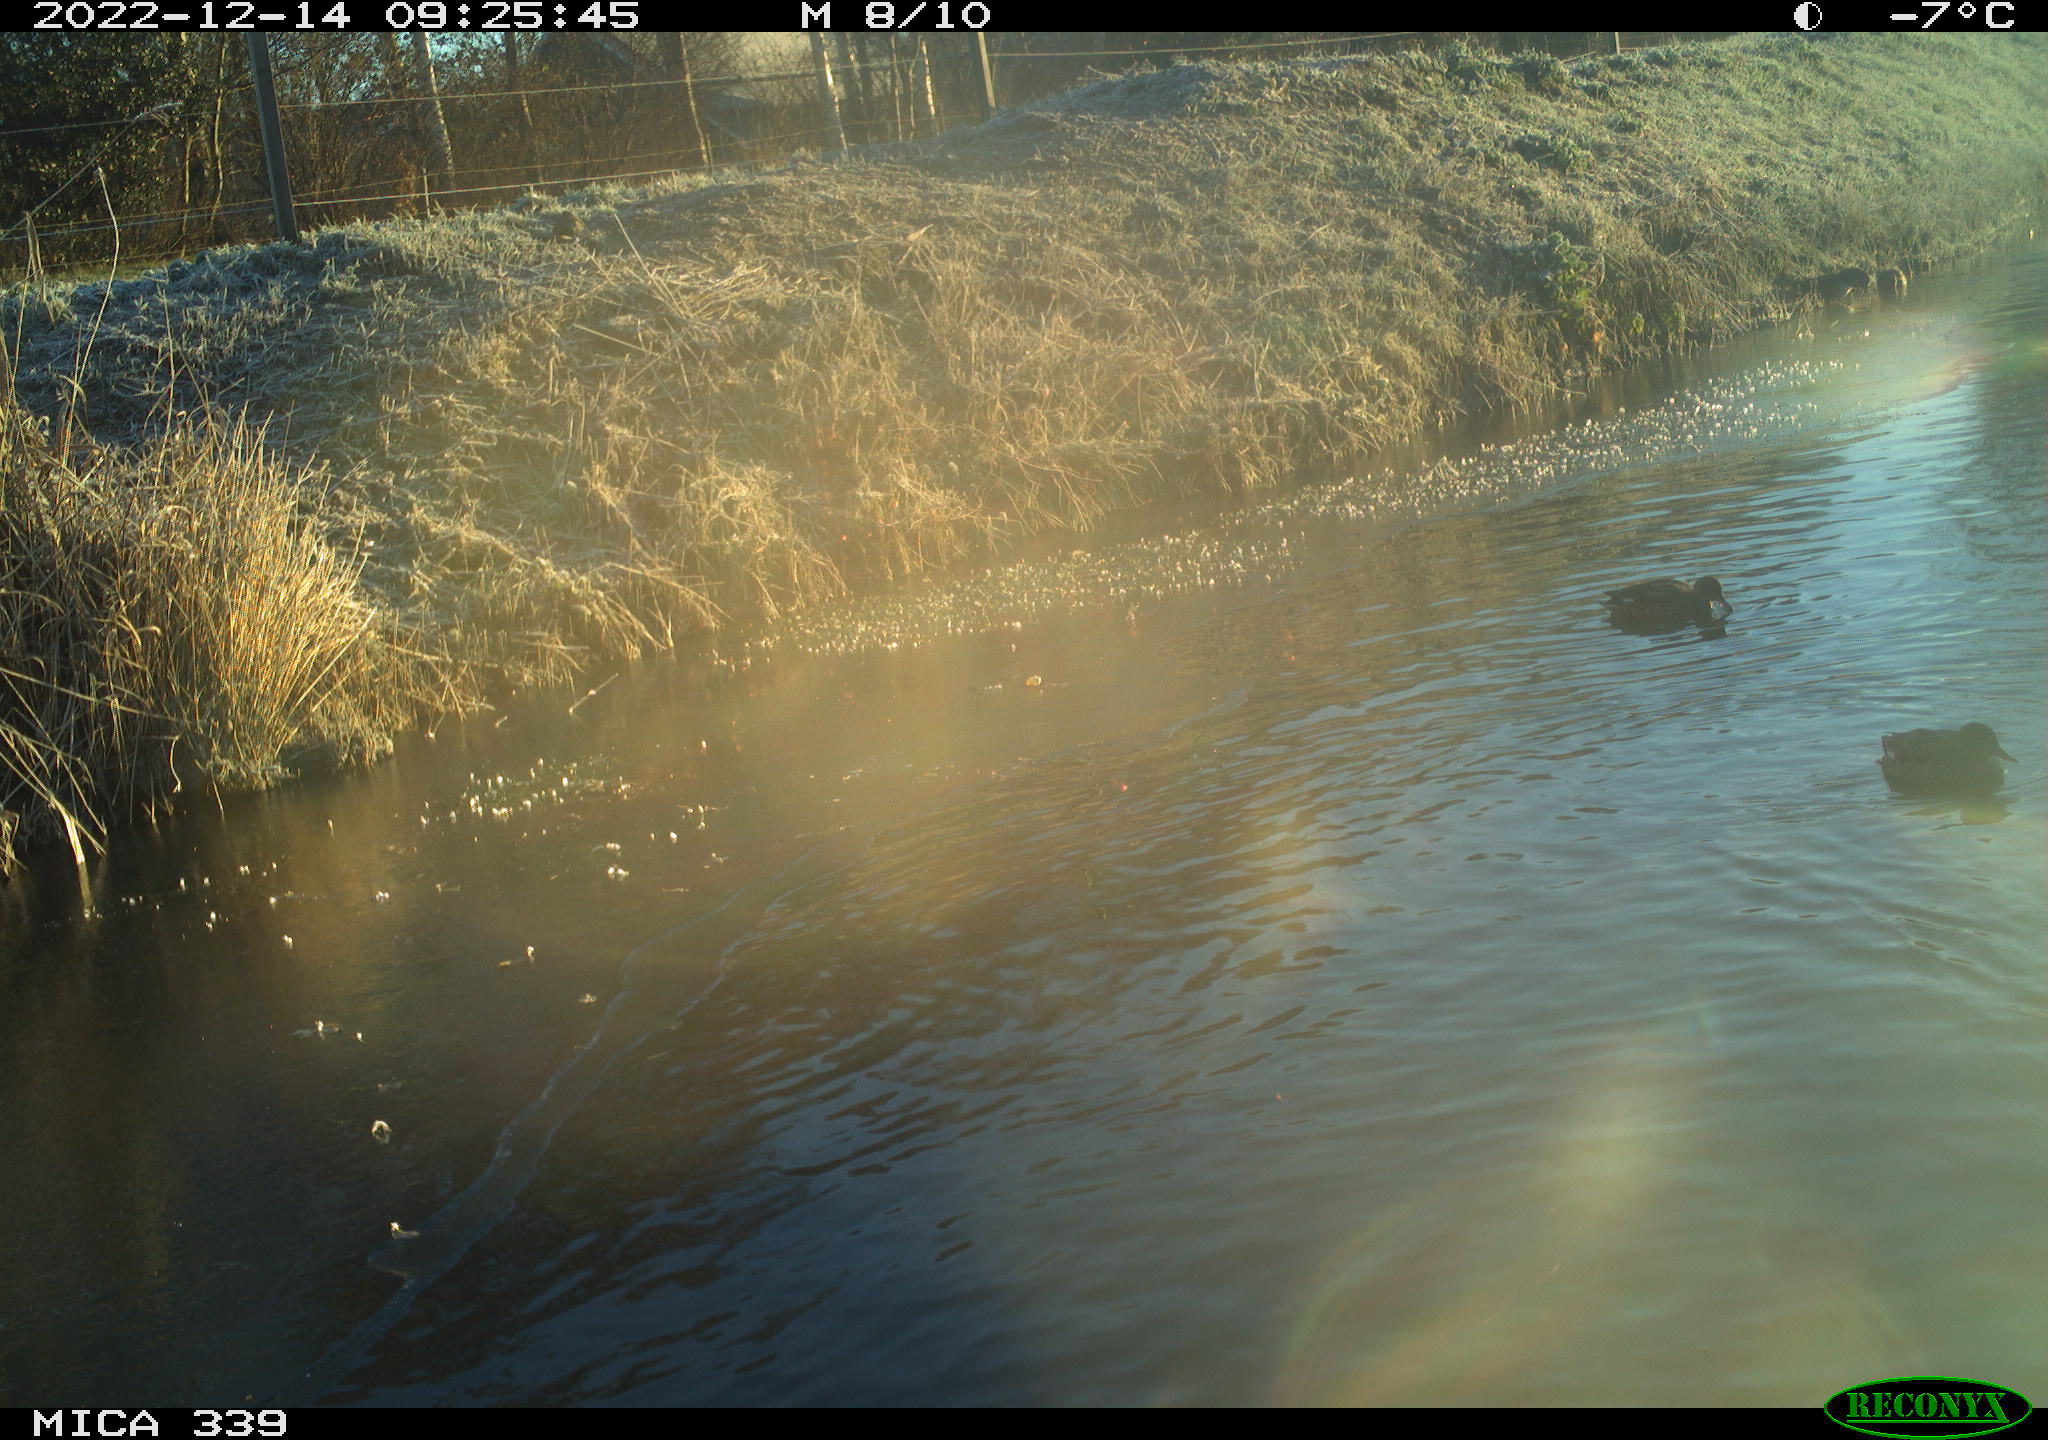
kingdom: Animalia
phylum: Chordata
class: Aves
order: Anseriformes
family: Anatidae
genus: Anas
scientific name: Anas
